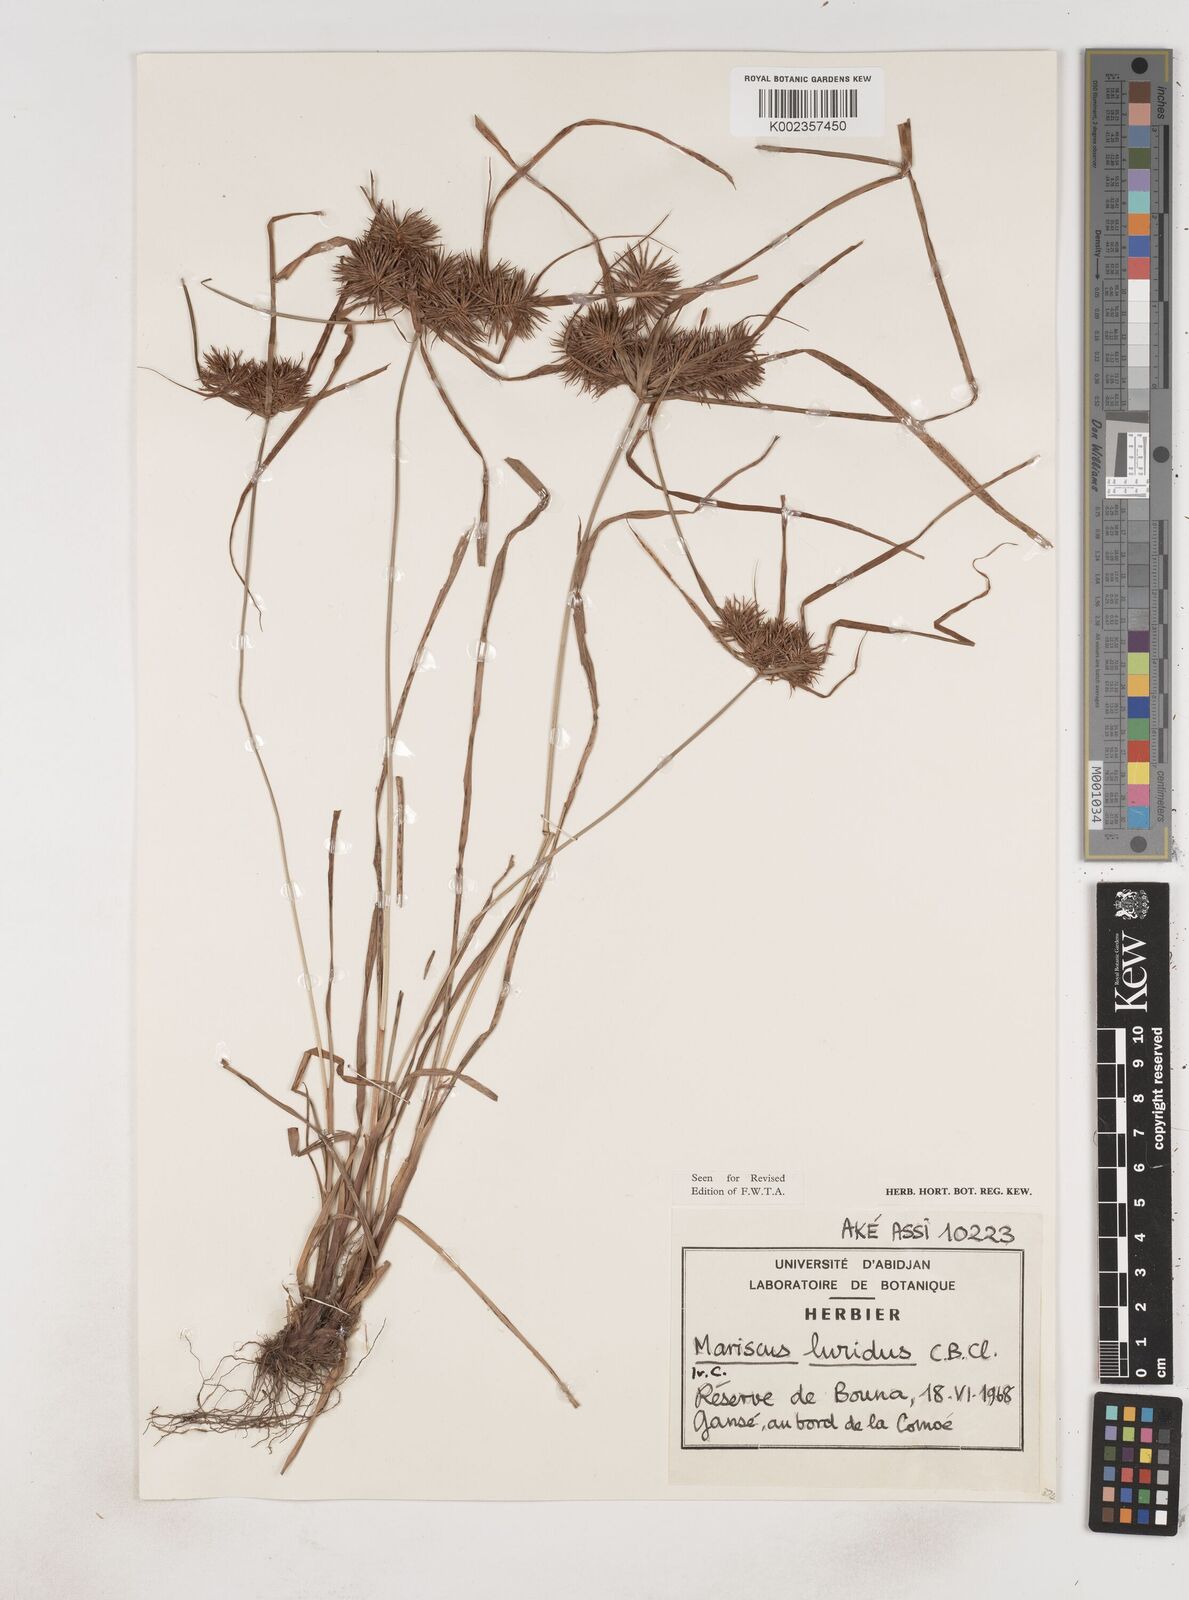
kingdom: Plantae
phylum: Tracheophyta
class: Liliopsida
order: Poales
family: Cyperaceae
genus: Cyperus
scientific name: Cyperus malabaricus
